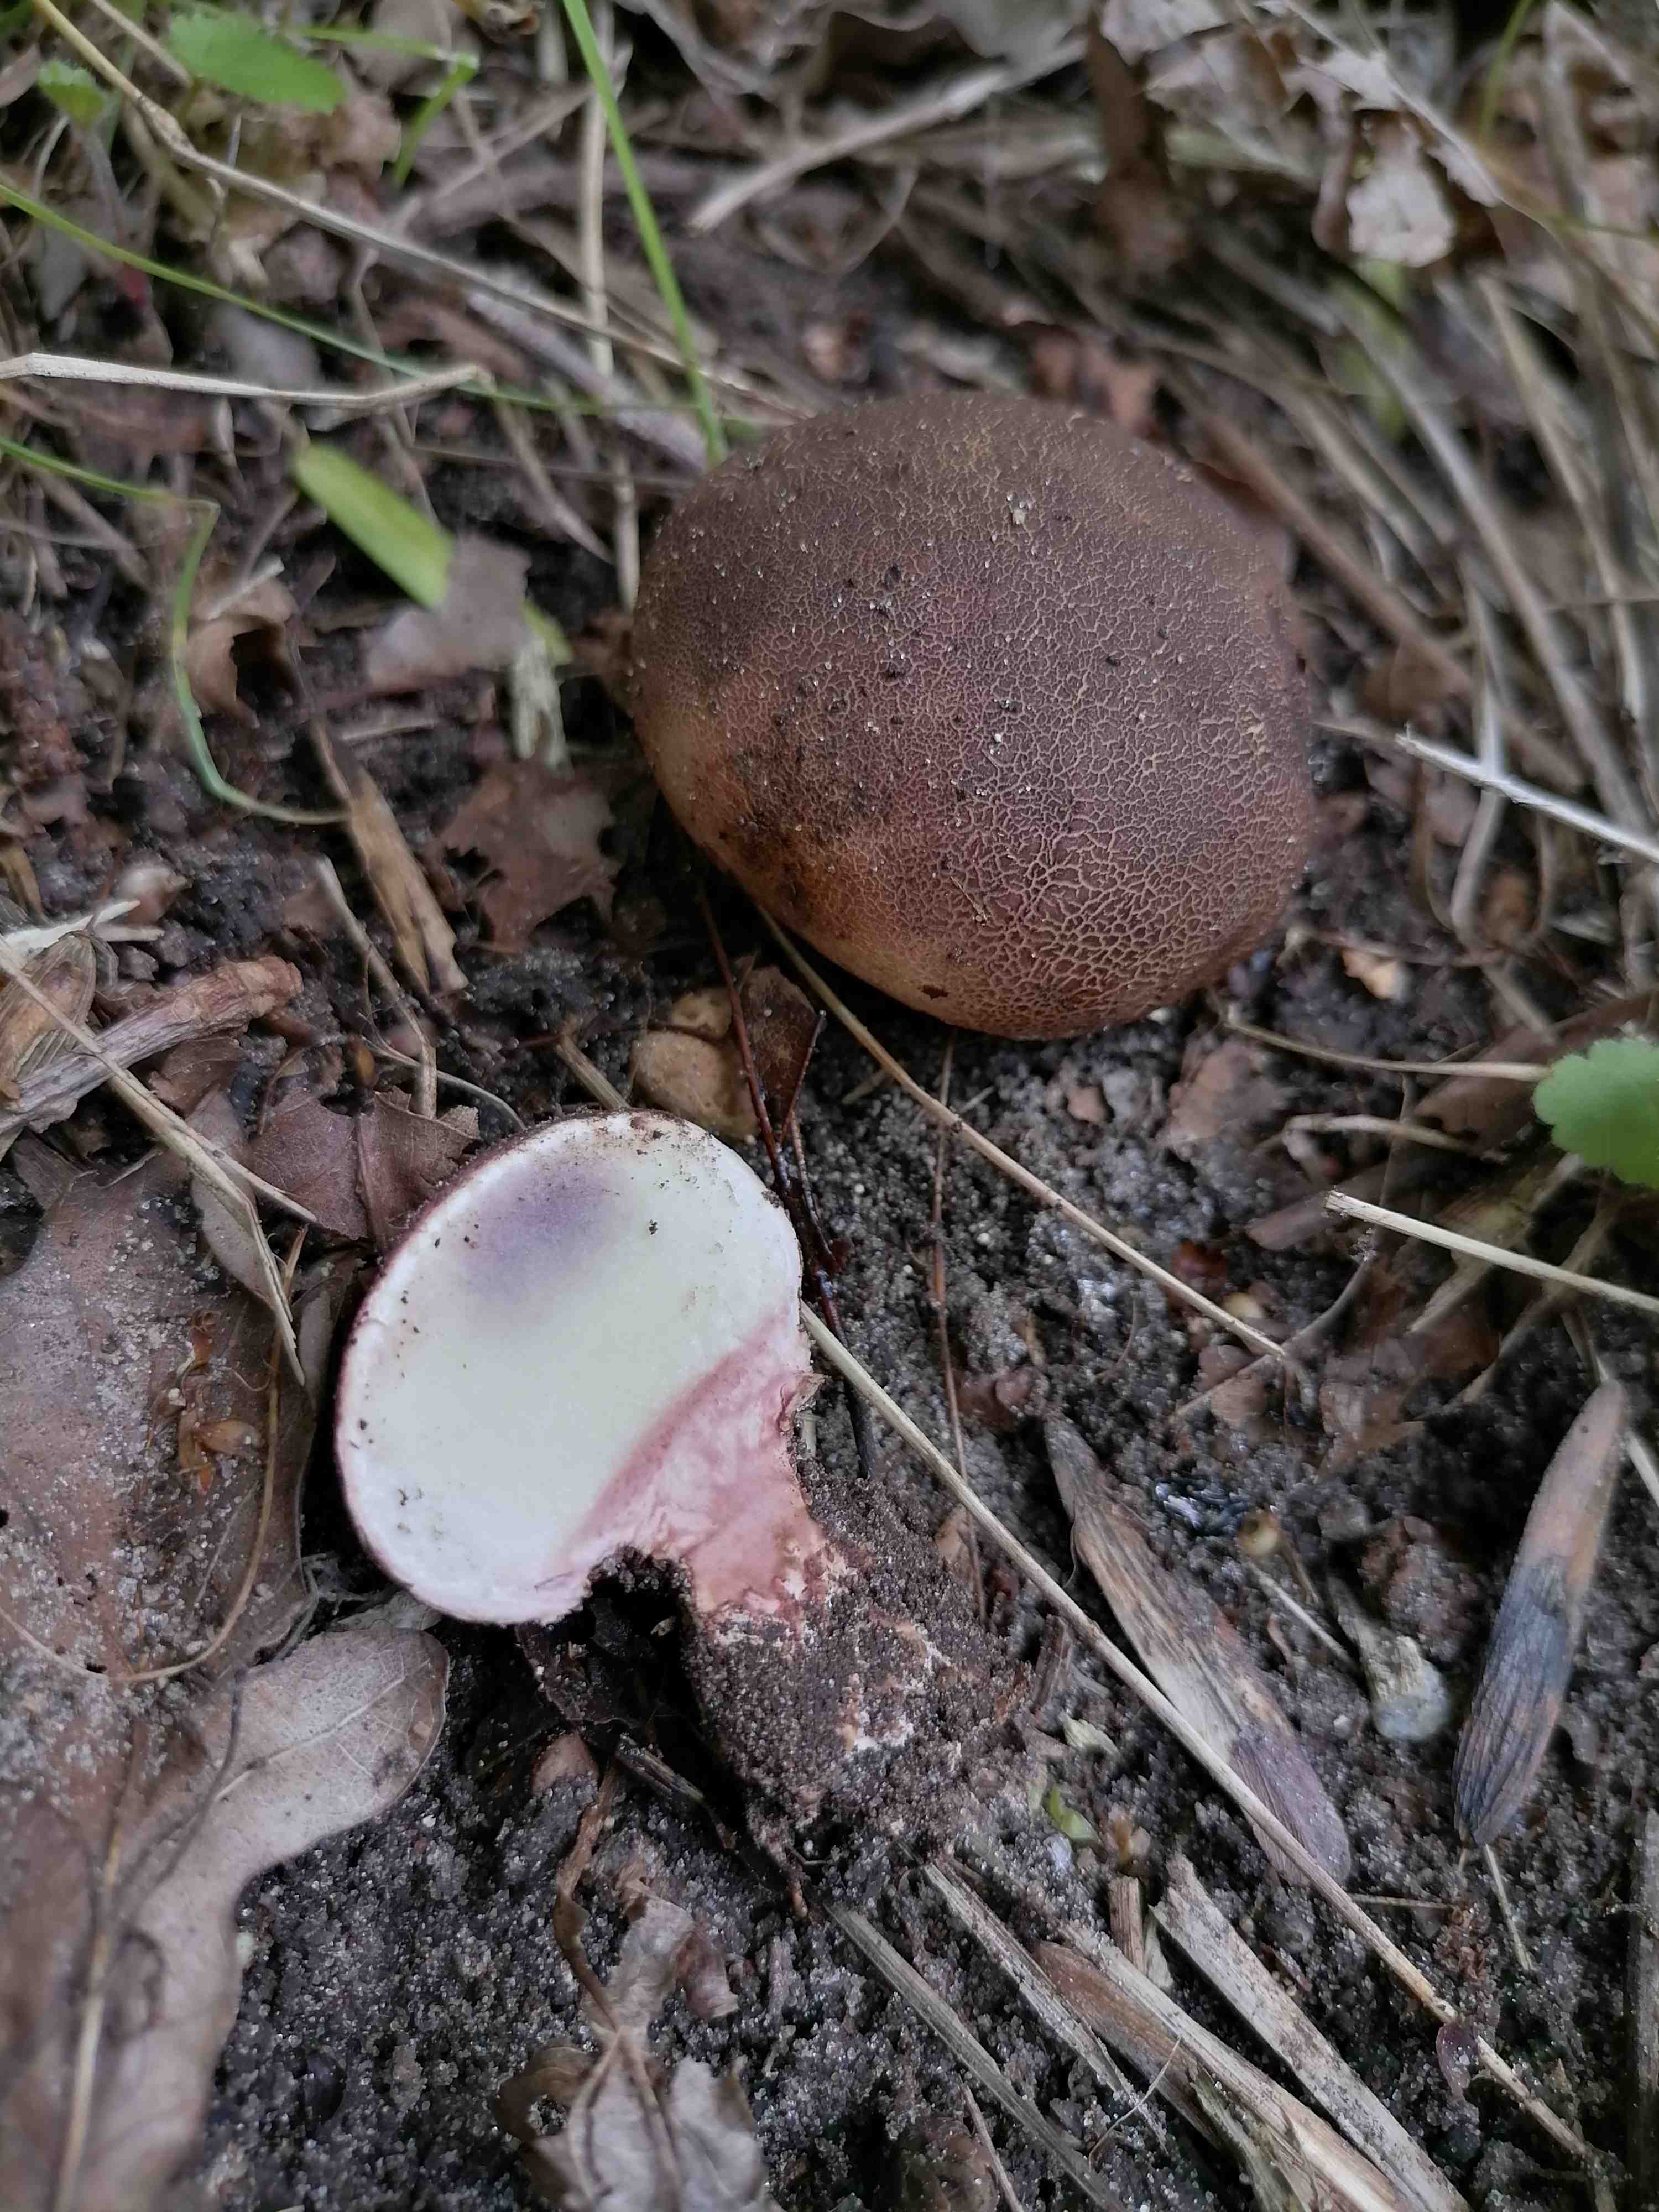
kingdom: Fungi
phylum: Basidiomycota
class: Agaricomycetes
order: Boletales
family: Sclerodermataceae
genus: Scleroderma
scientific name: Scleroderma verrucosum
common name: stilket bruskbold
